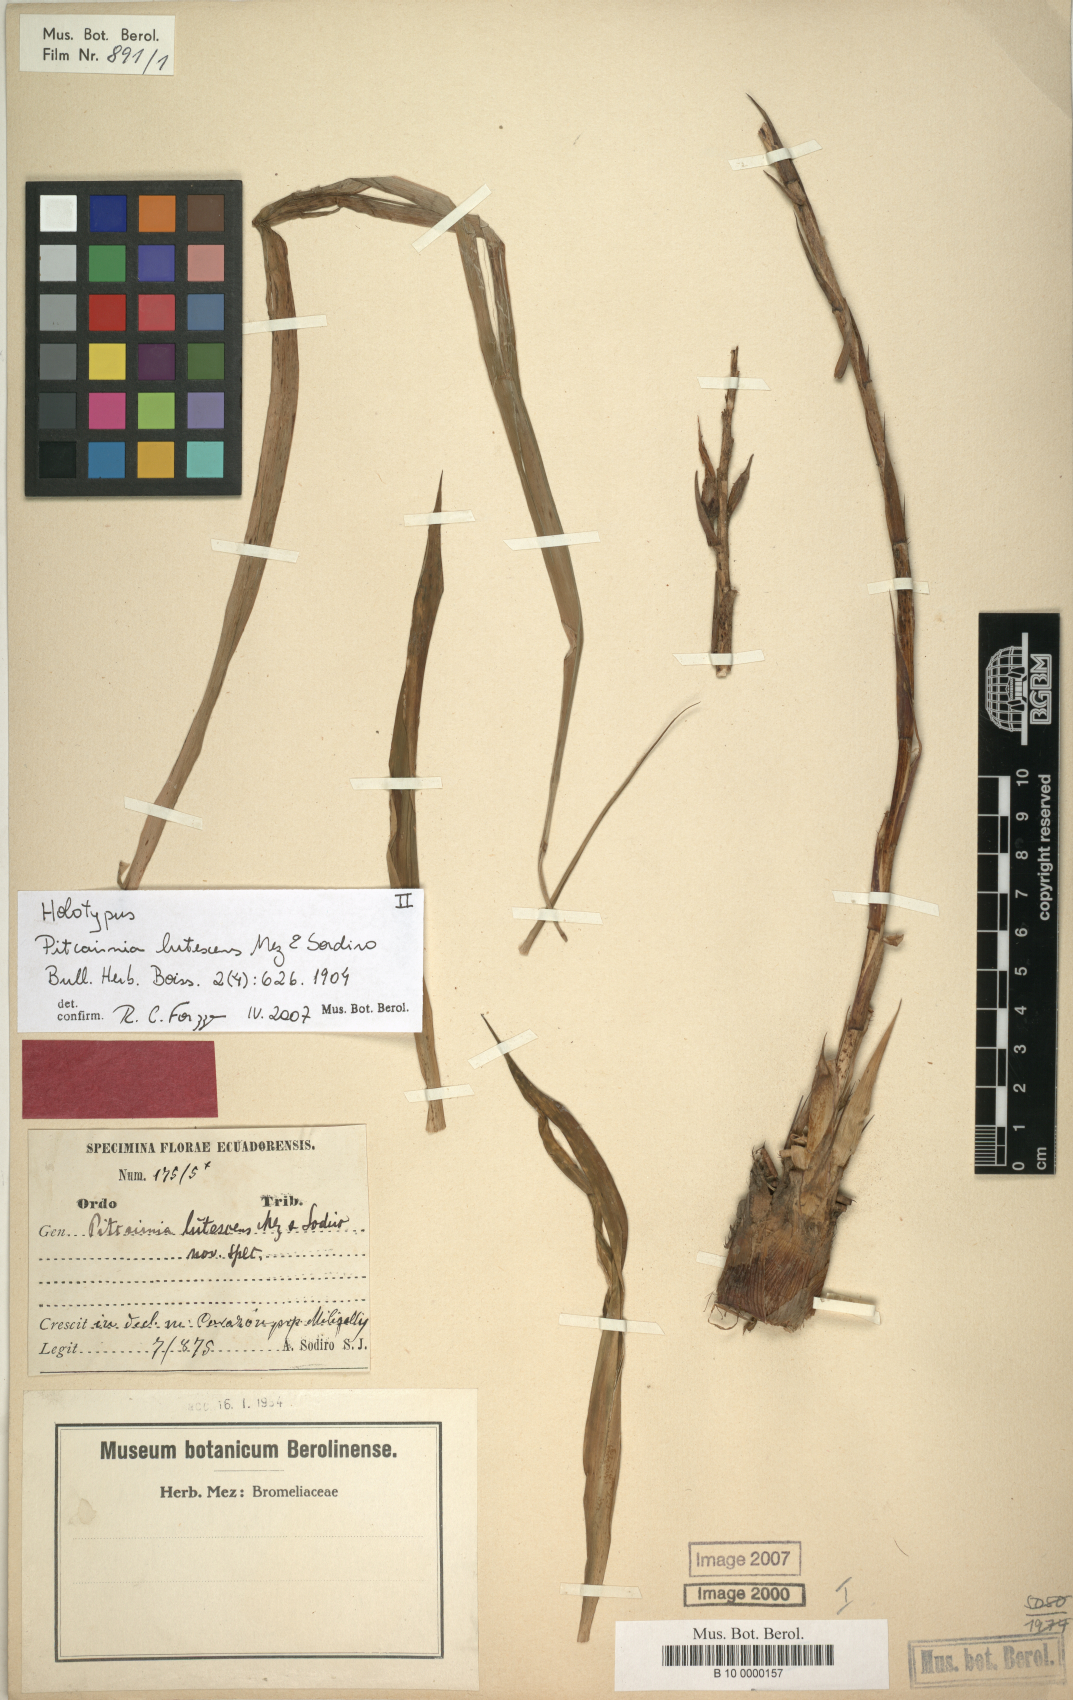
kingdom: Plantae
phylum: Tracheophyta
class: Liliopsida
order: Poales
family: Bromeliaceae
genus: Pitcairnia
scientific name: Pitcairnia lutescens
